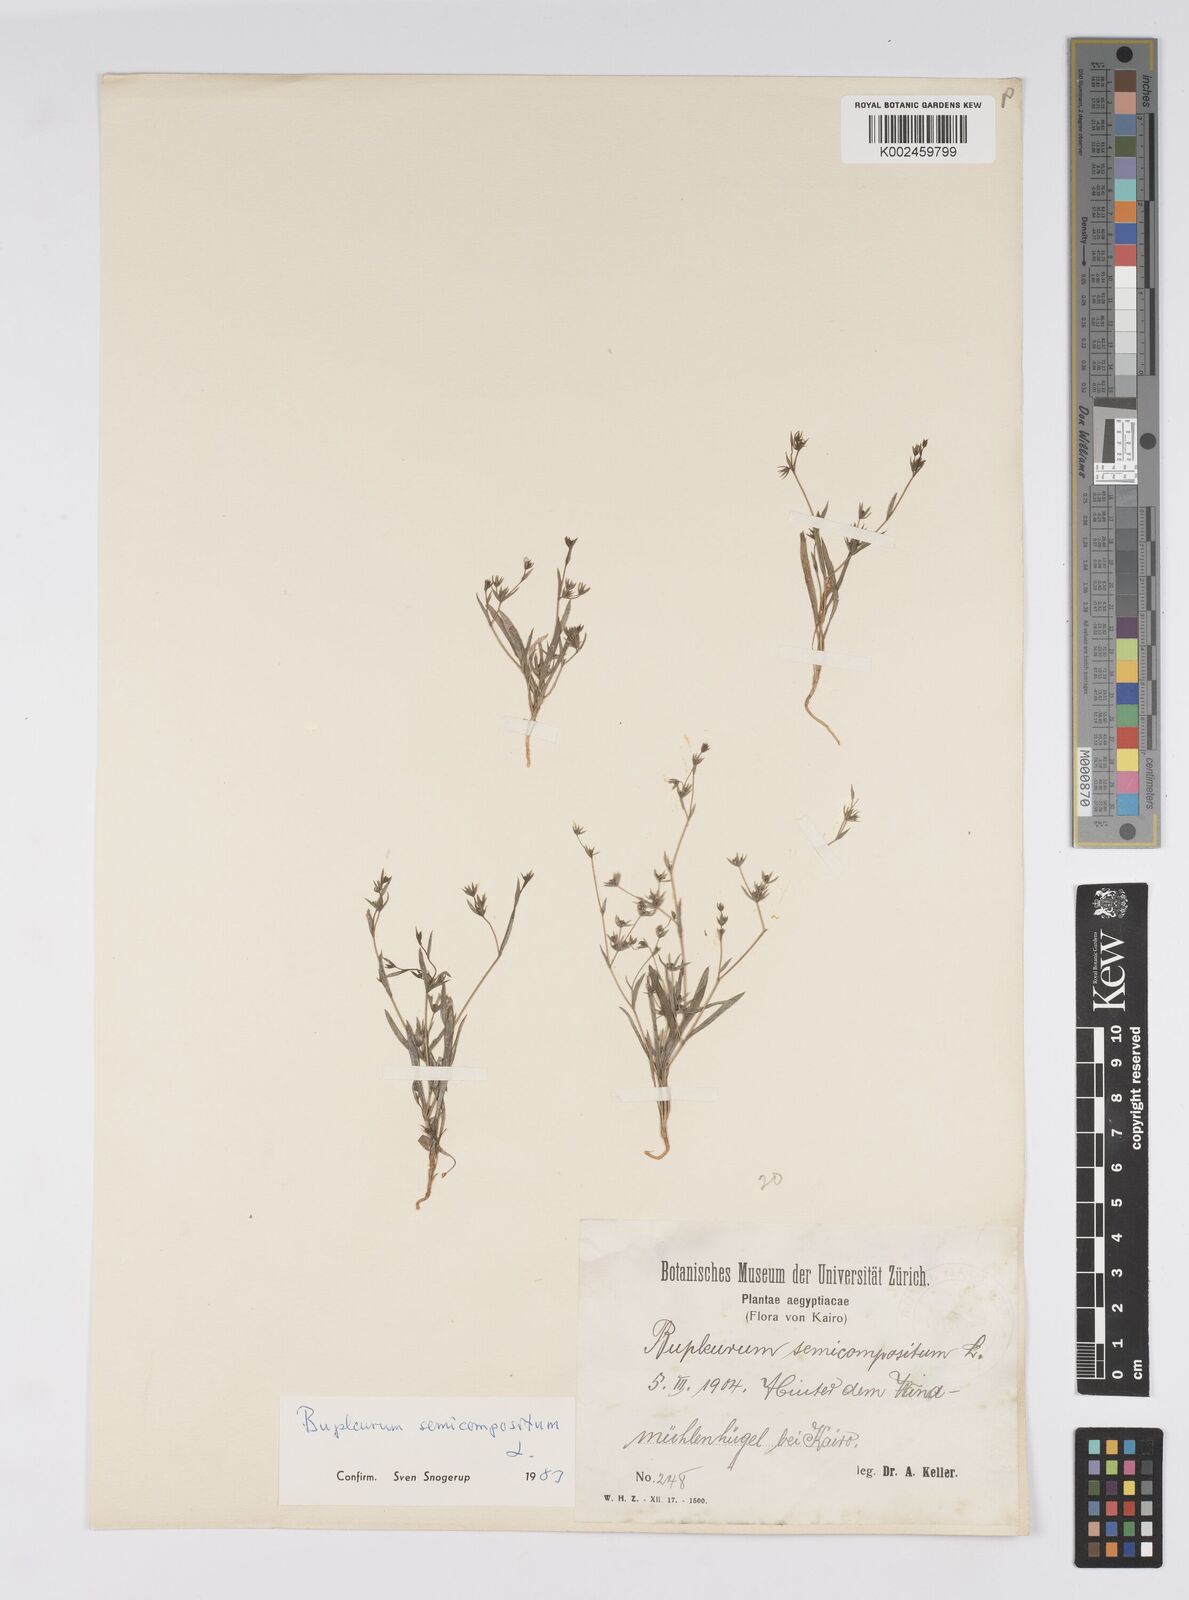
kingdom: Plantae
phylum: Tracheophyta
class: Magnoliopsida
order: Apiales
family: Apiaceae
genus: Bupleurum
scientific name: Bupleurum semicompositum
